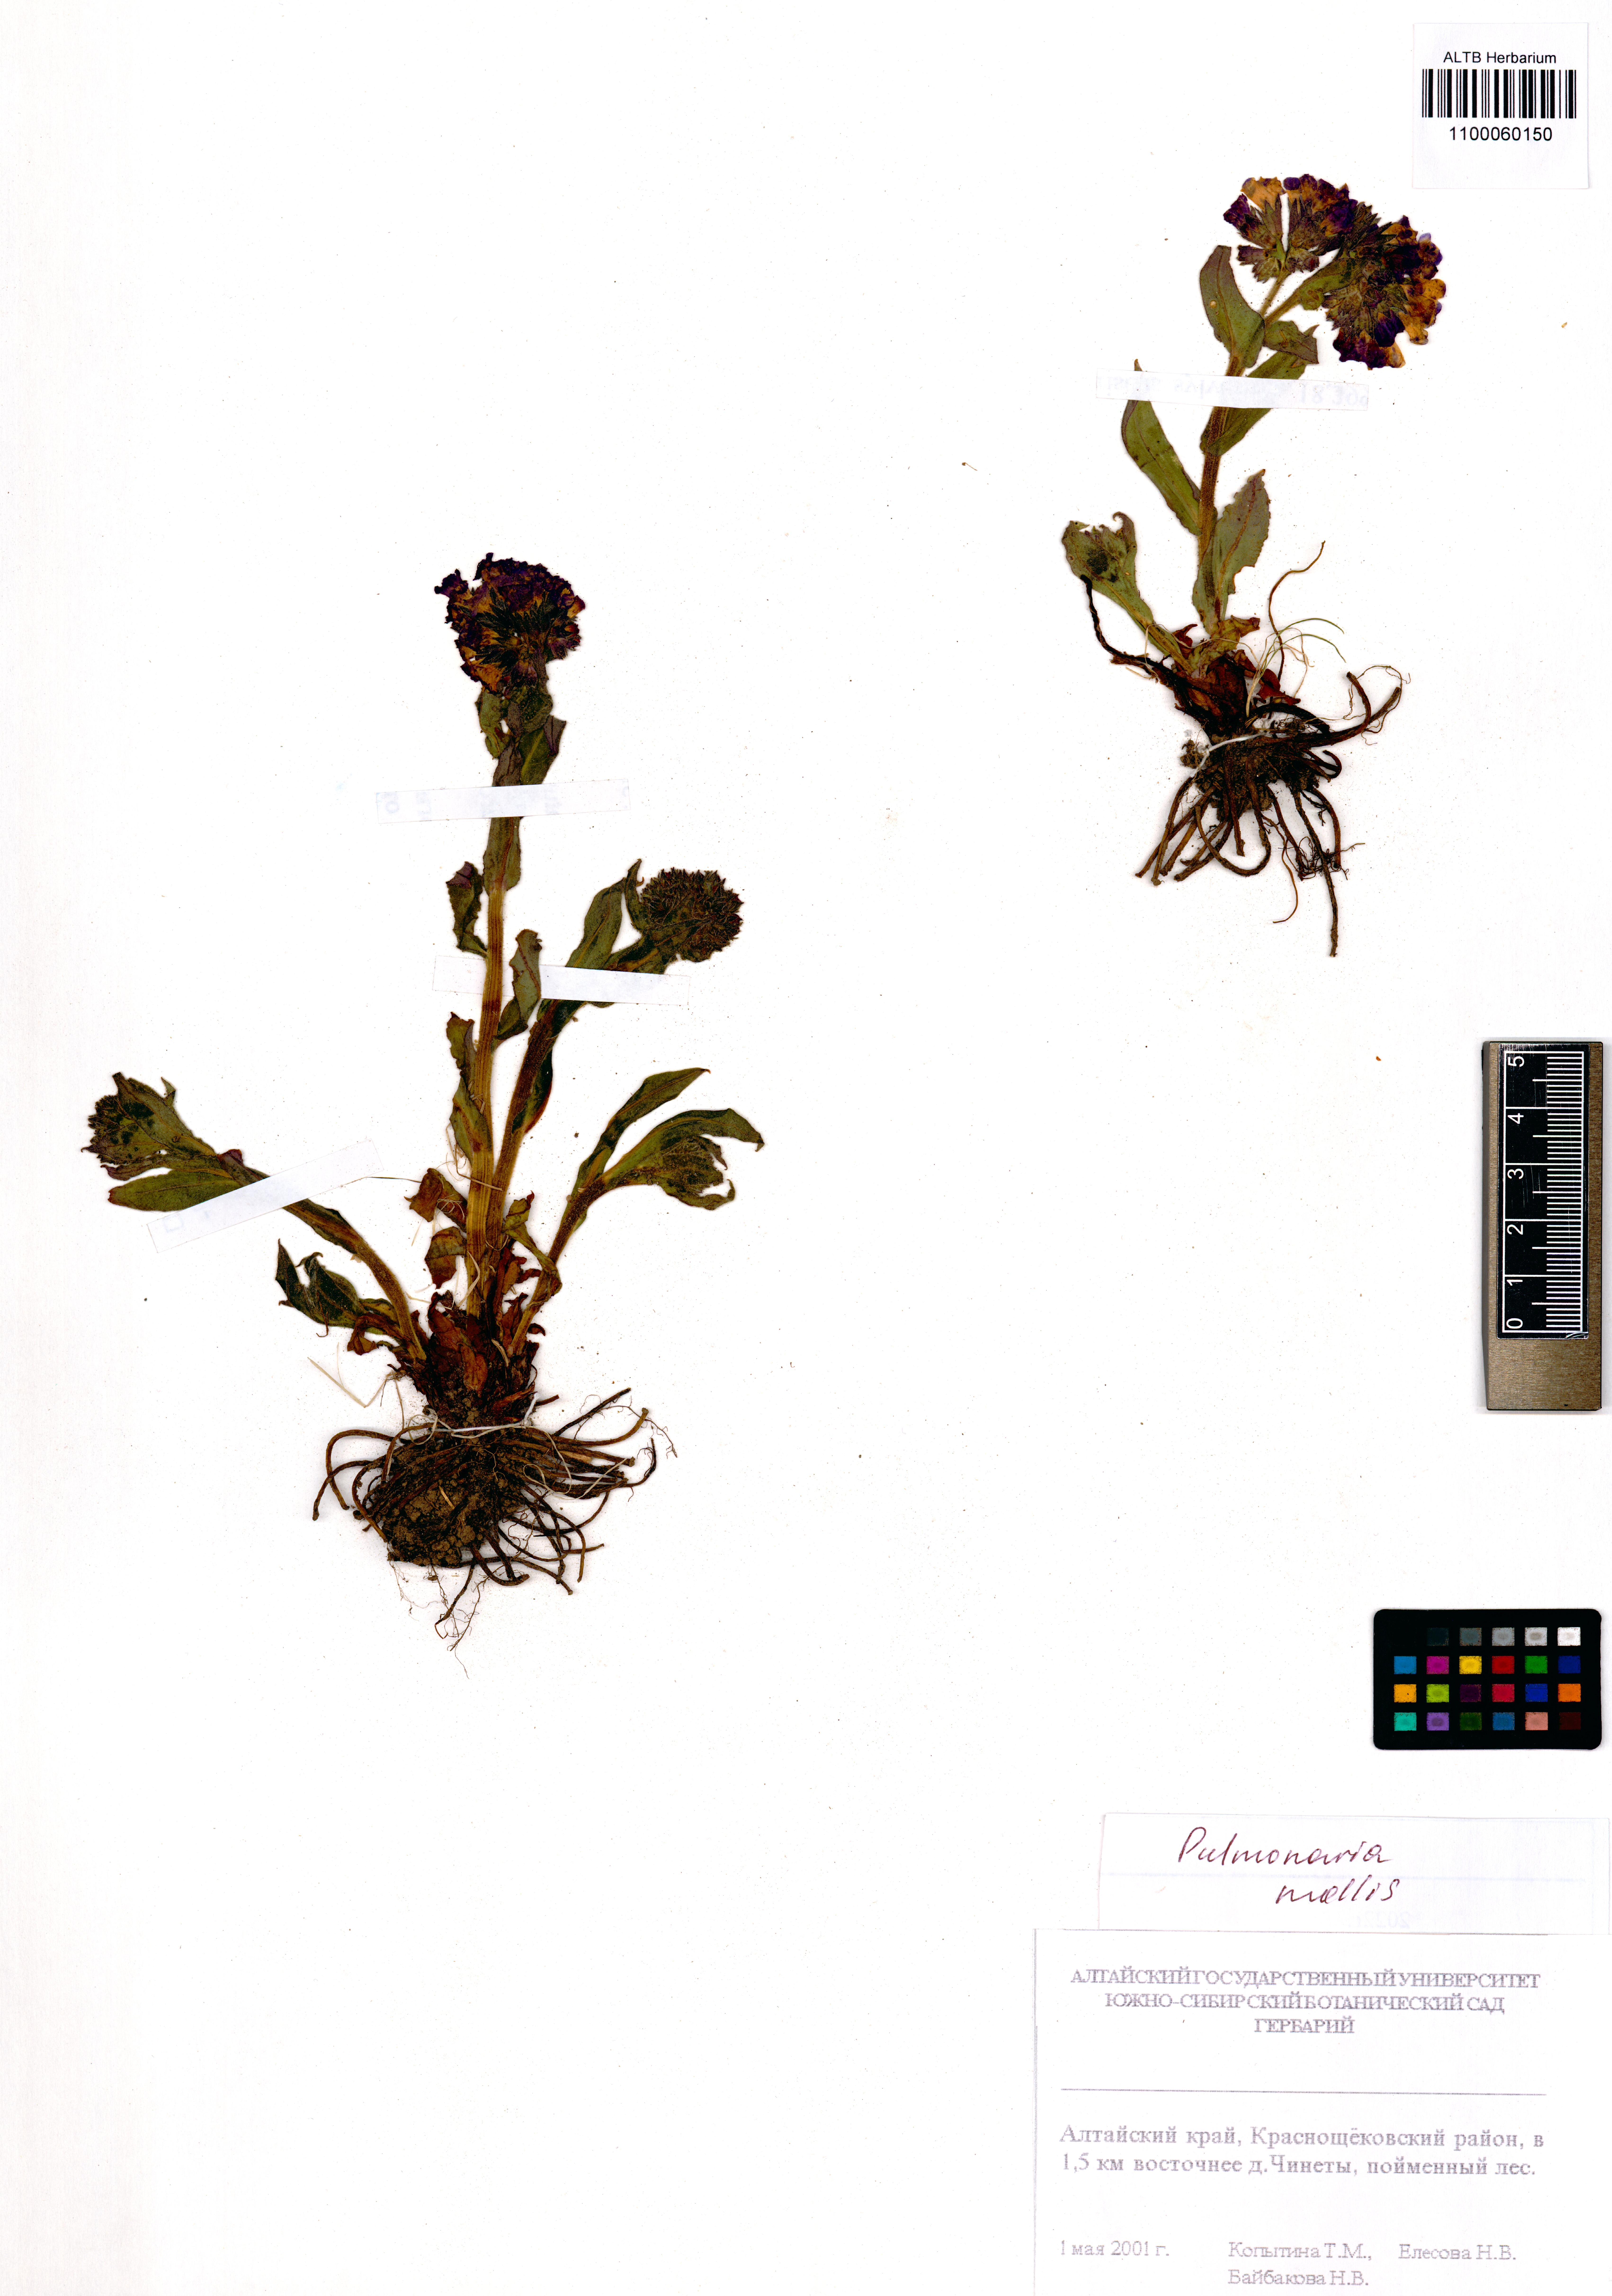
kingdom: Plantae
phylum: Tracheophyta
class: Magnoliopsida
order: Boraginales
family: Boraginaceae
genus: Pulmonaria
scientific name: Pulmonaria mollis
